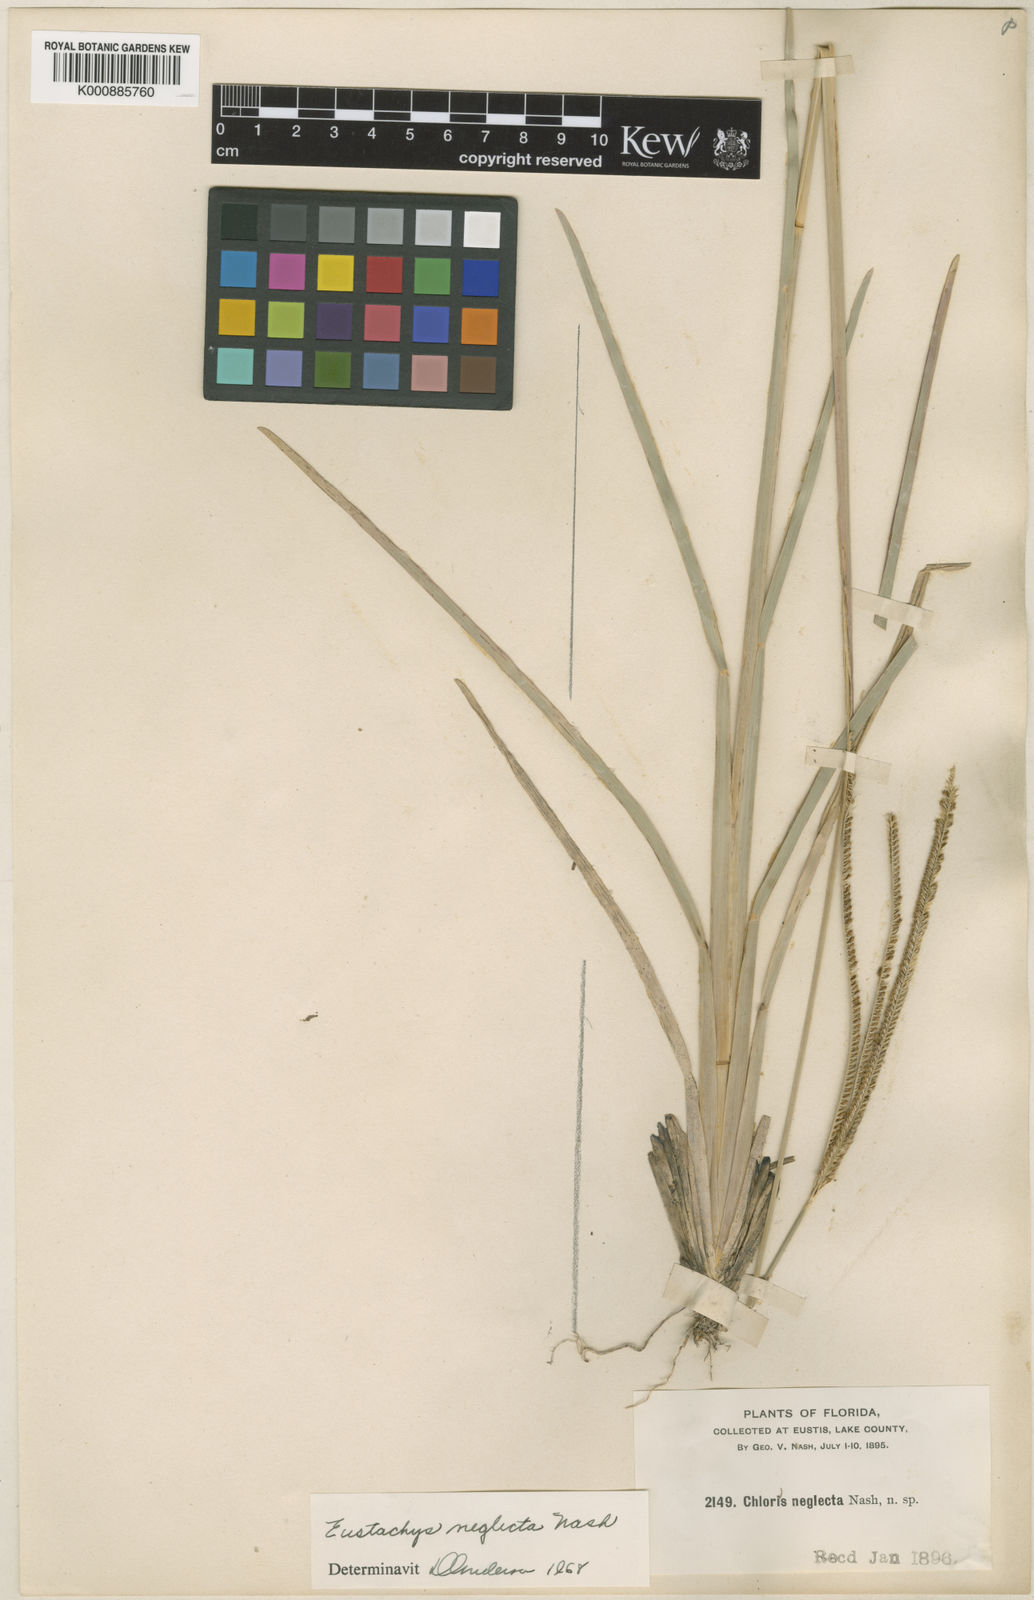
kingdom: Plantae
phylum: Tracheophyta
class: Liliopsida
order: Poales
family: Poaceae
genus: Eustachys
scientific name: Eustachys neglecta
